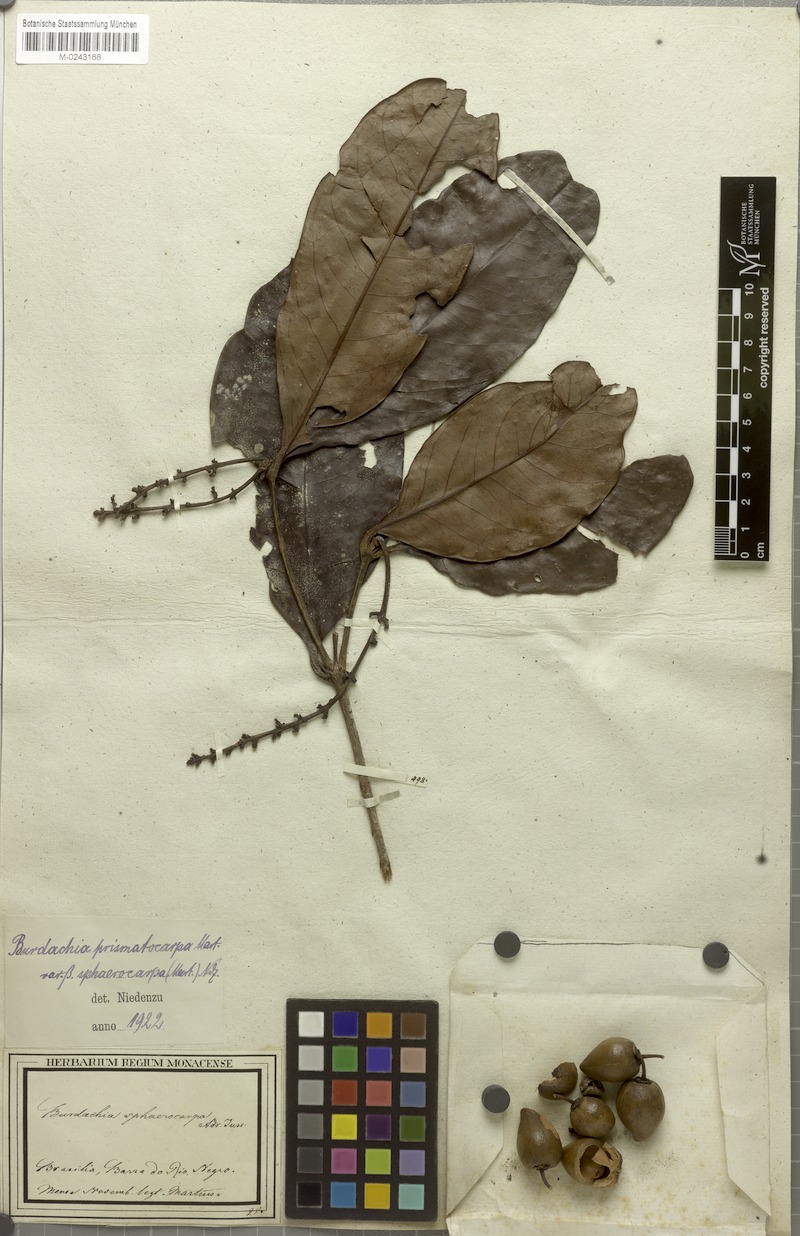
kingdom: Plantae
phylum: Tracheophyta
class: Magnoliopsida
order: Malpighiales
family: Malpighiaceae
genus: Burdachia
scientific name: Burdachia sphaerocarpa
